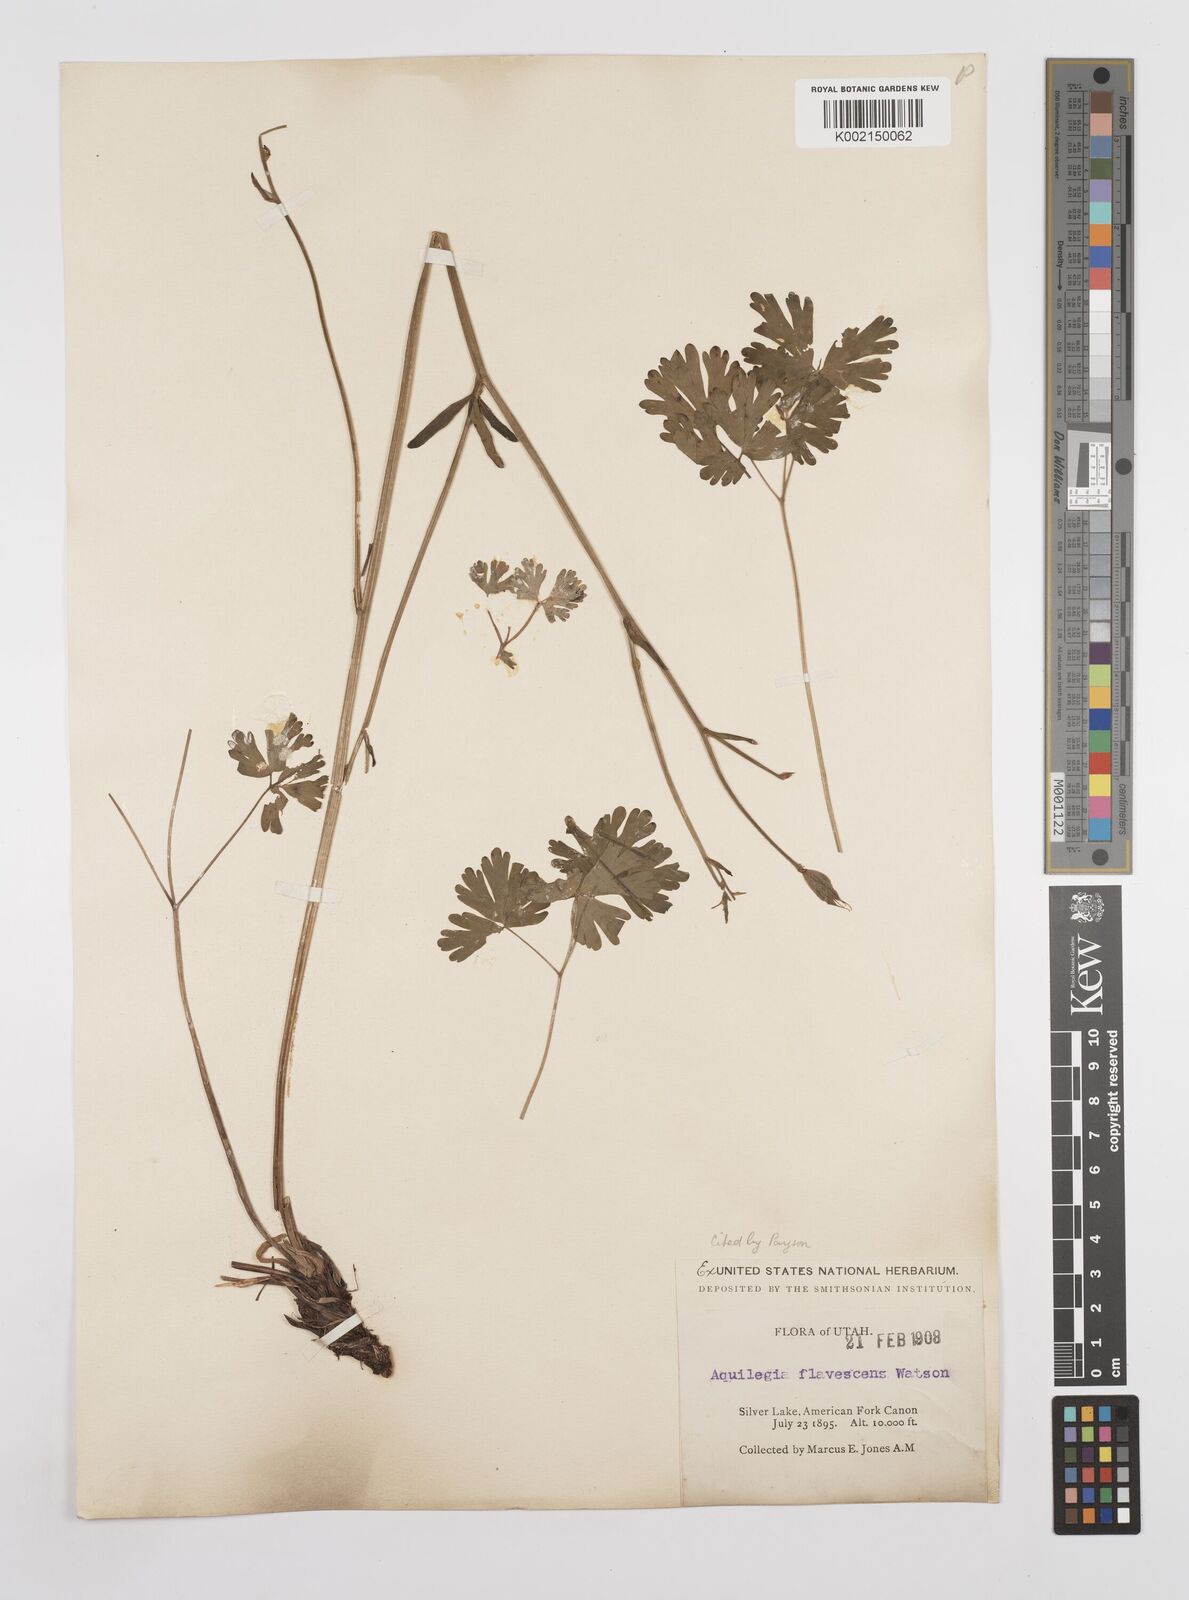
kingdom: Plantae
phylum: Tracheophyta
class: Magnoliopsida
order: Ranunculales
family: Ranunculaceae
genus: Aquilegia
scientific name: Aquilegia flavescens
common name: Yellow columbine
